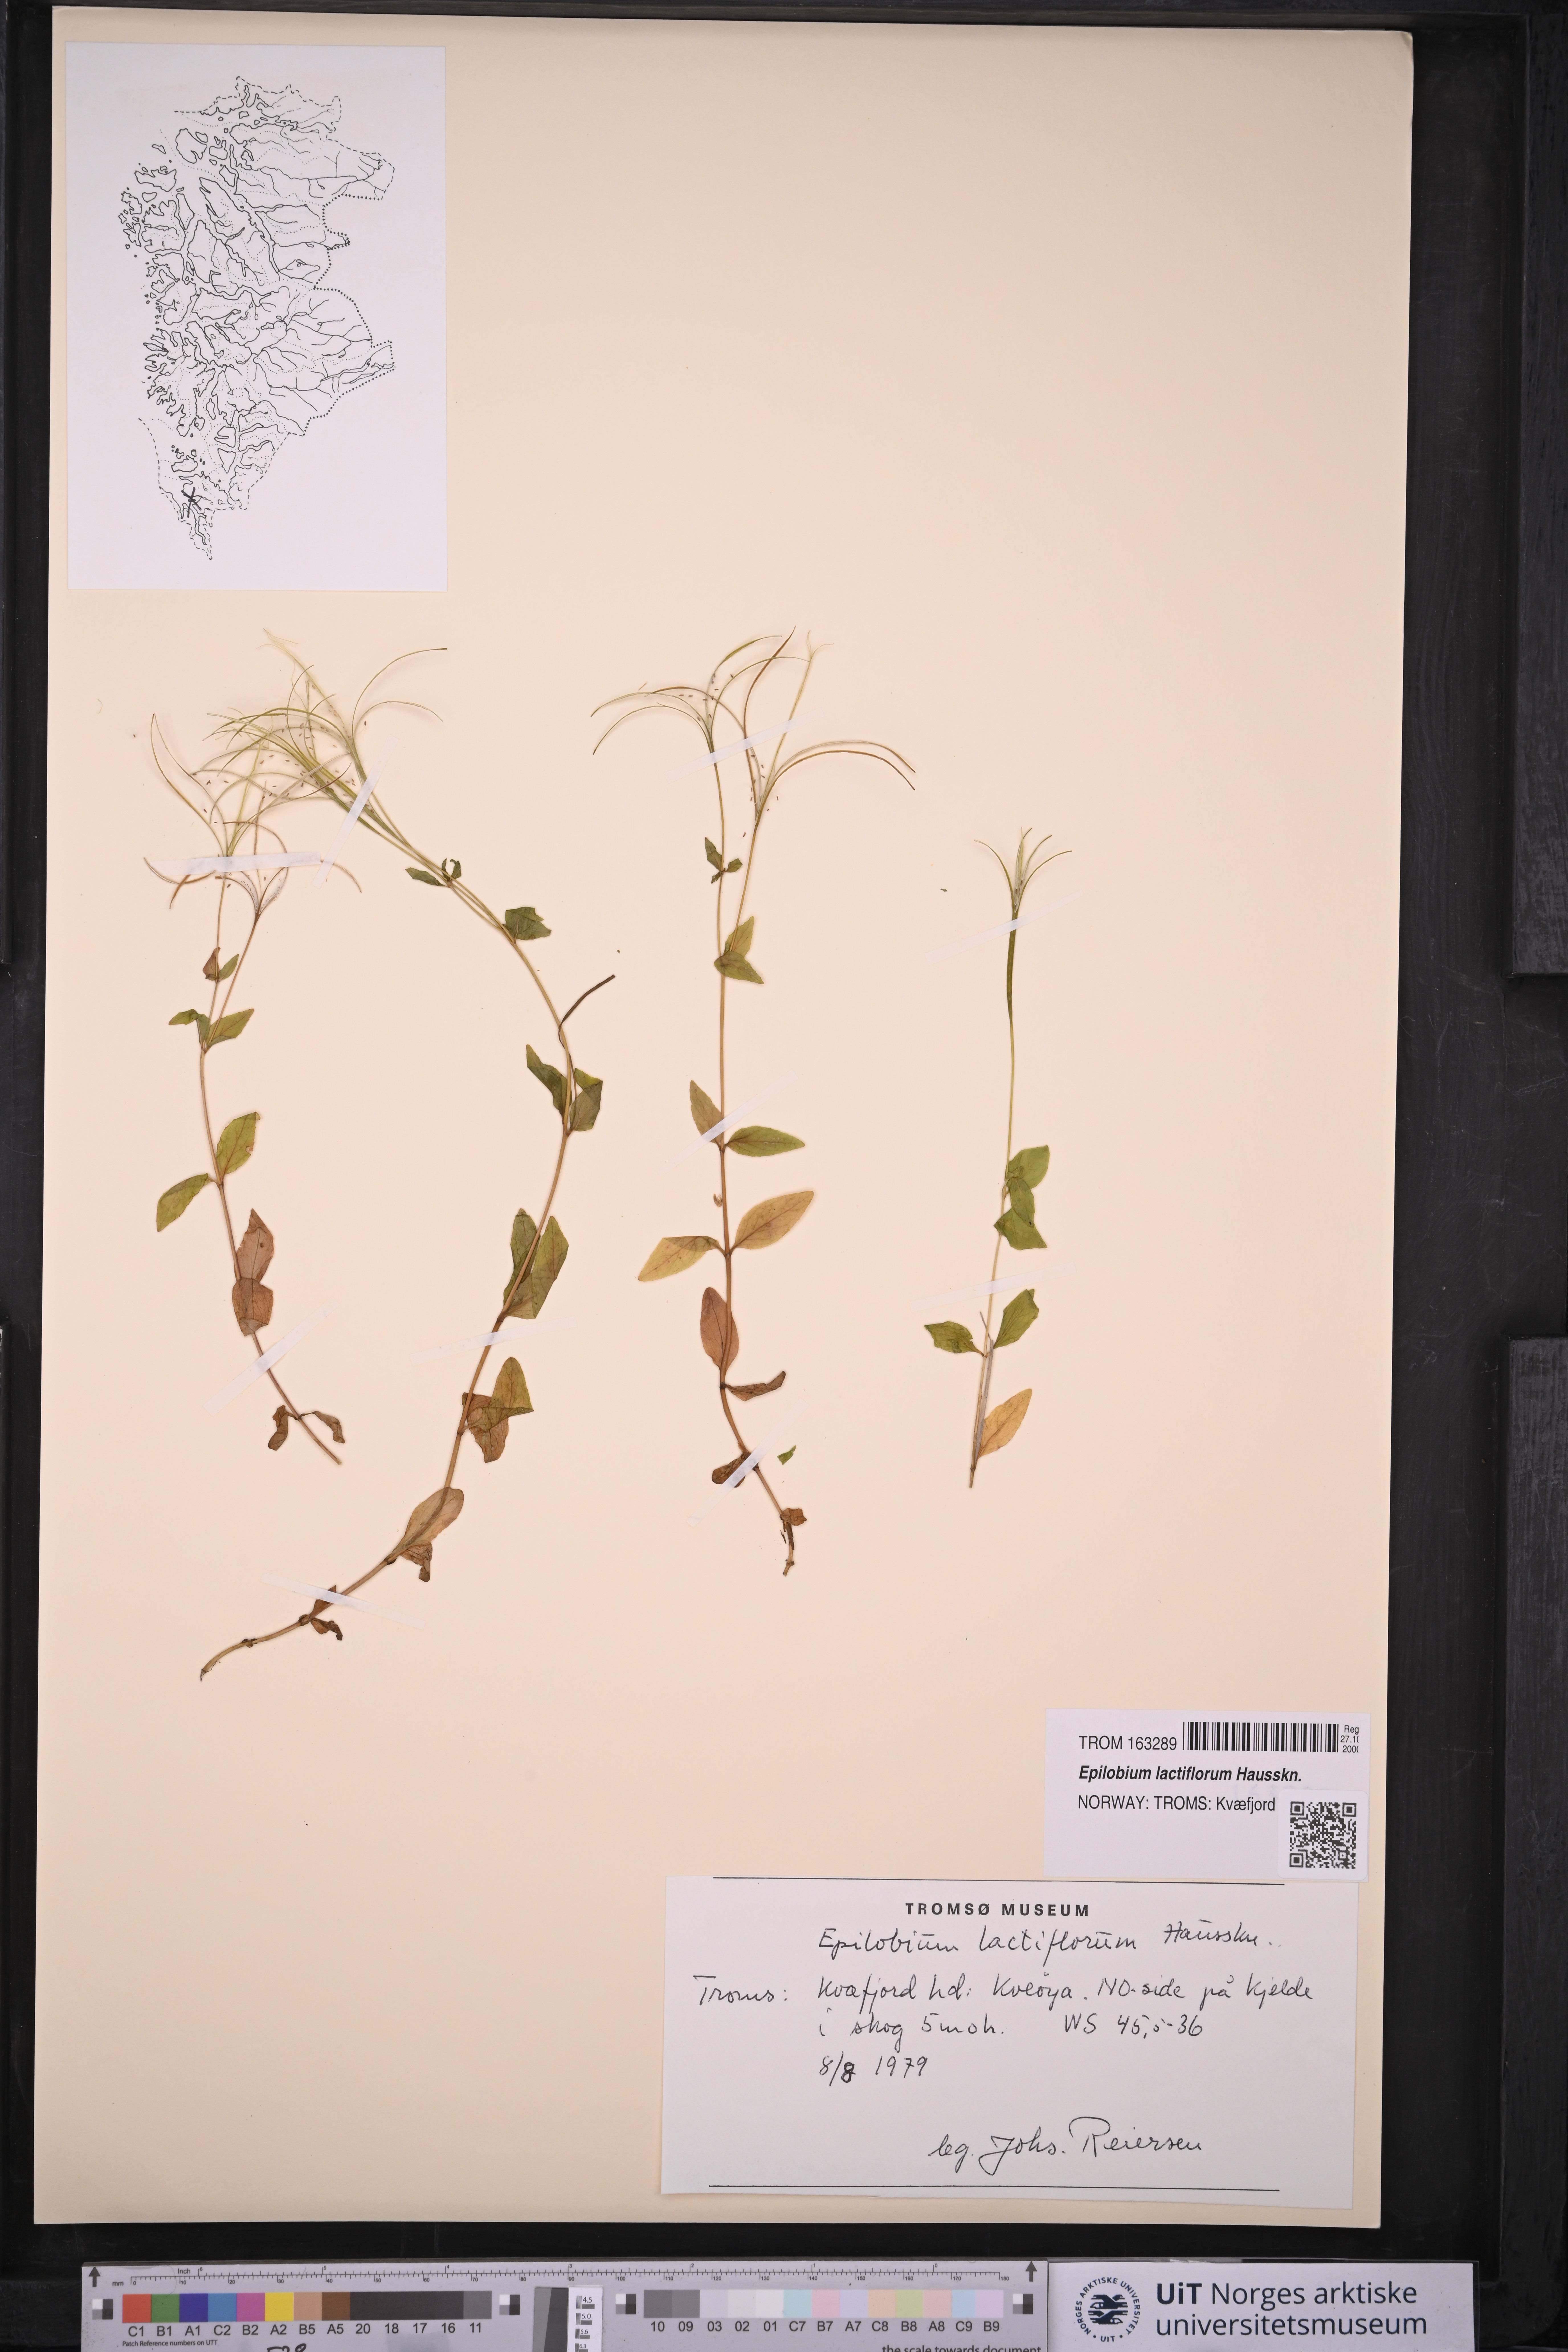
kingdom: Plantae
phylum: Tracheophyta
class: Magnoliopsida
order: Myrtales
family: Onagraceae
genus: Epilobium
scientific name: Epilobium lactiflorum
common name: Milkflower willowherb
